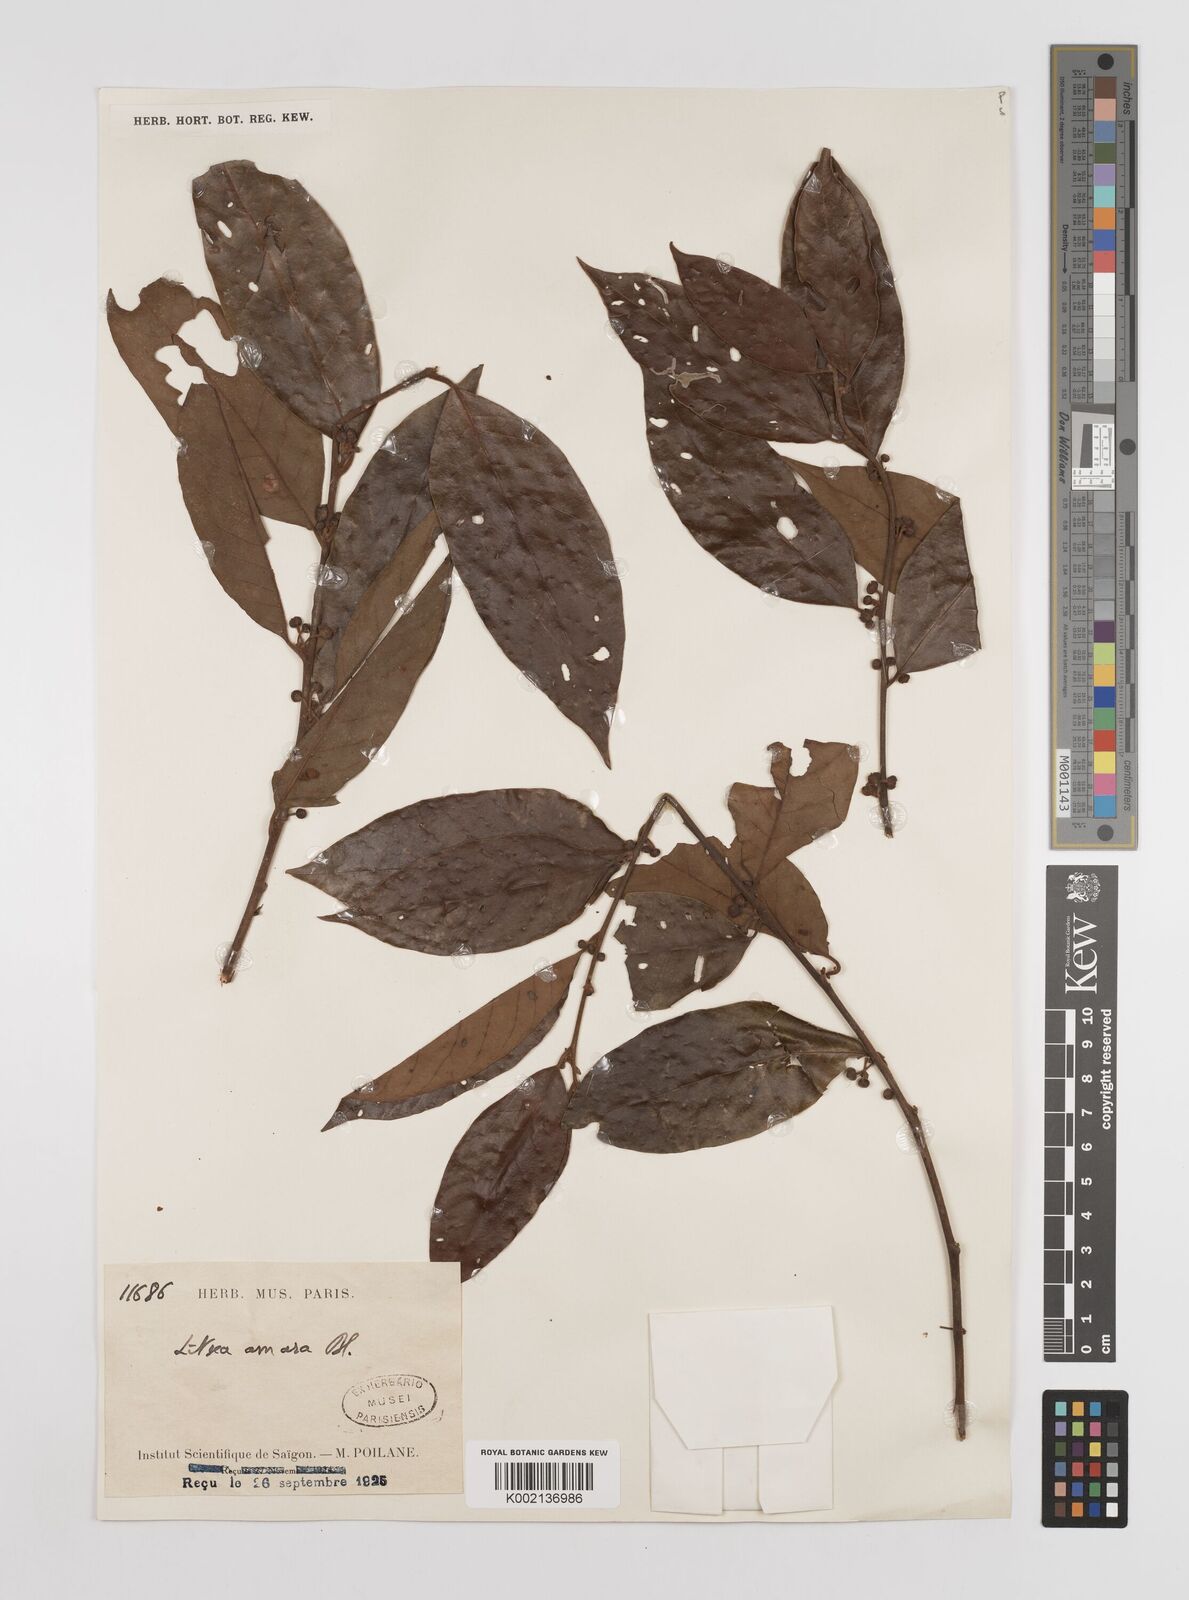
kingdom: Plantae
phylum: Tracheophyta
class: Magnoliopsida
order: Laurales
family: Lauraceae
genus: Litsea
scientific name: Litsea umbellata
